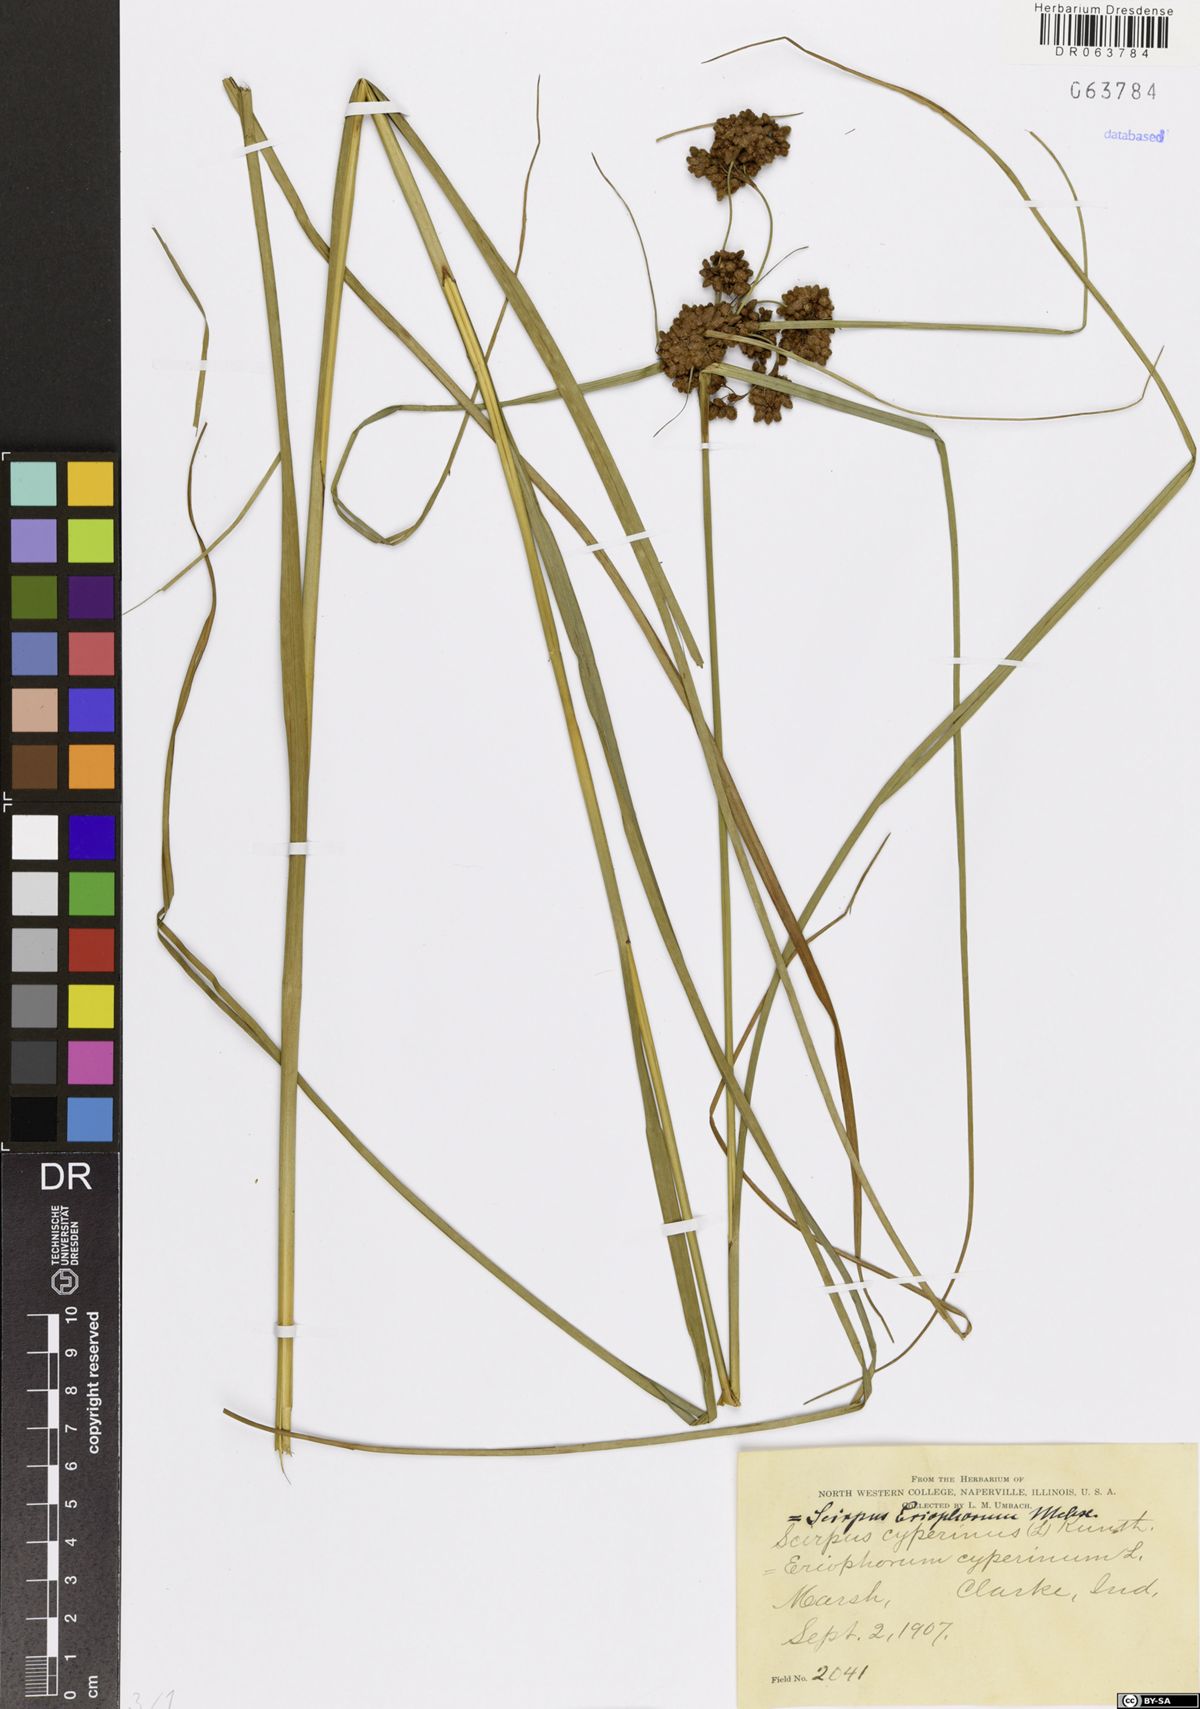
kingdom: Plantae
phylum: Tracheophyta
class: Liliopsida
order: Poales
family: Cyperaceae
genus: Scirpus
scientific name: Scirpus cyperinus
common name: Black-sheathed bulrush
